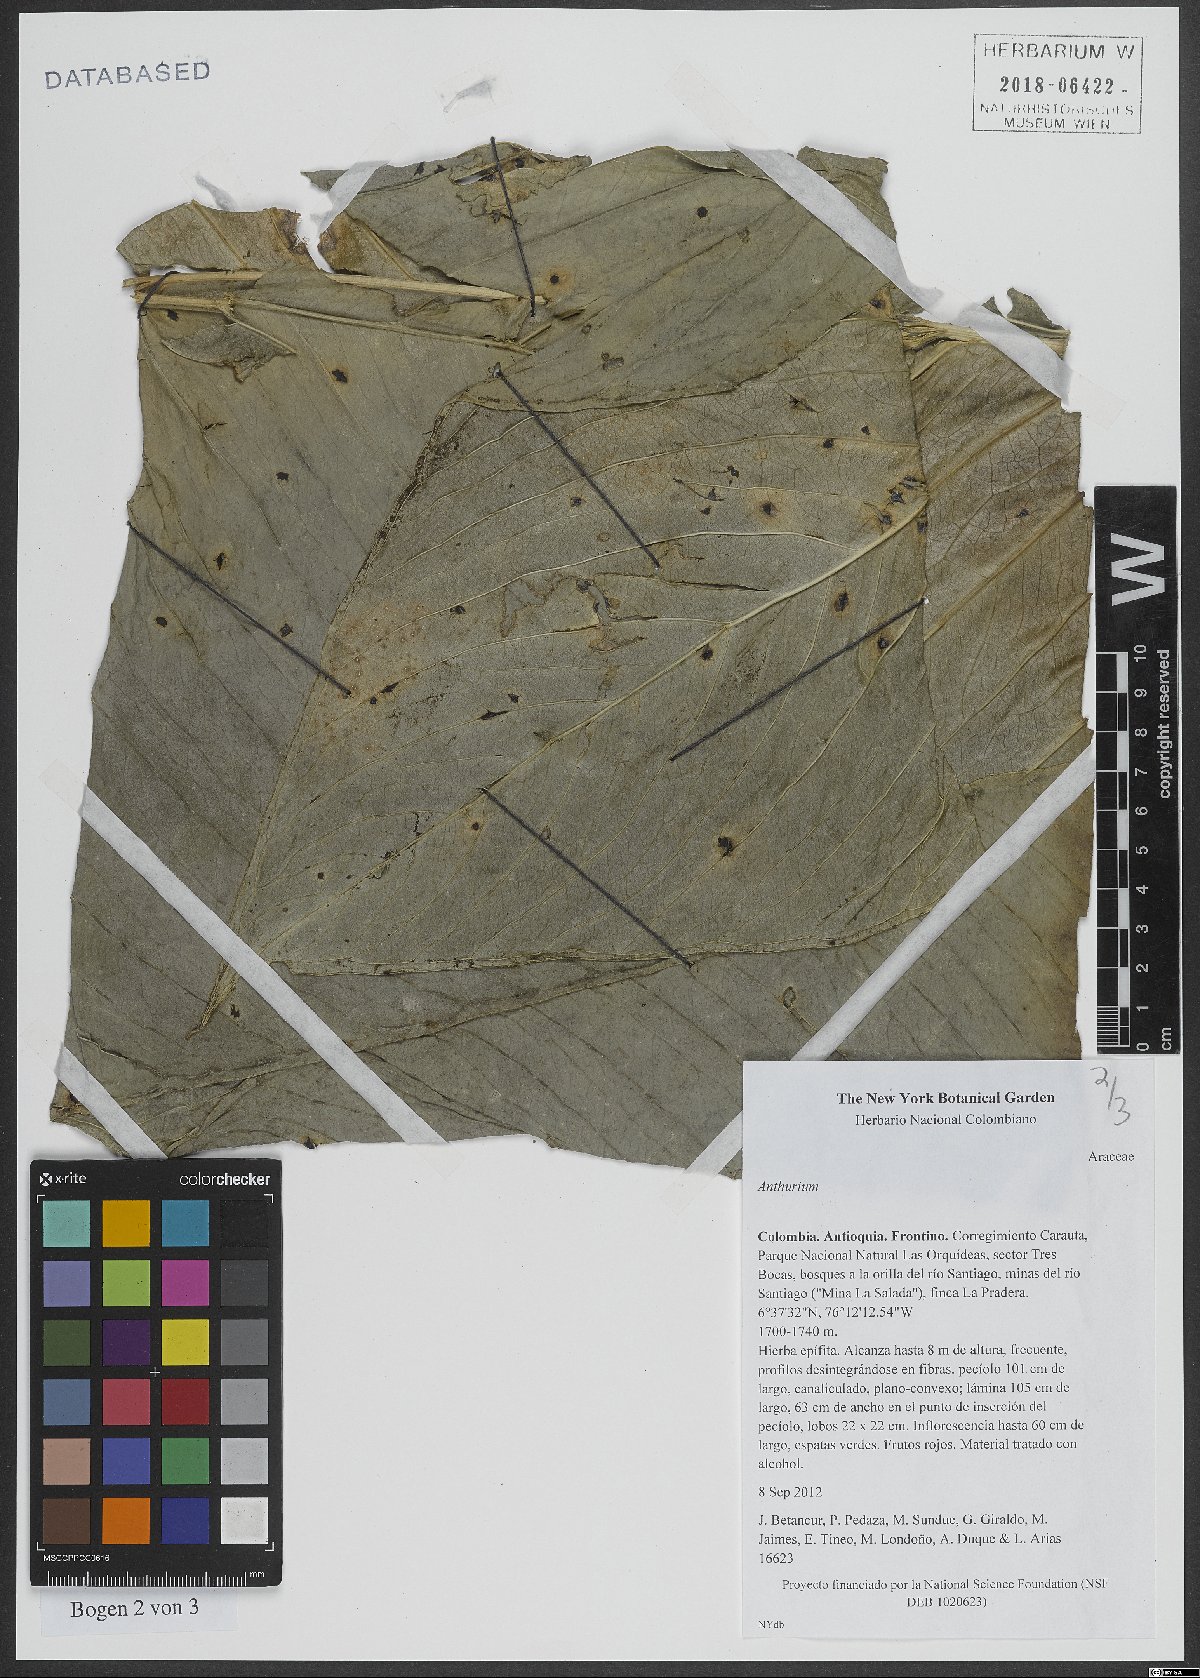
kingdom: Plantae
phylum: Tracheophyta
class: Liliopsida
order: Alismatales
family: Araceae
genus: Anthurium
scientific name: Anthurium
